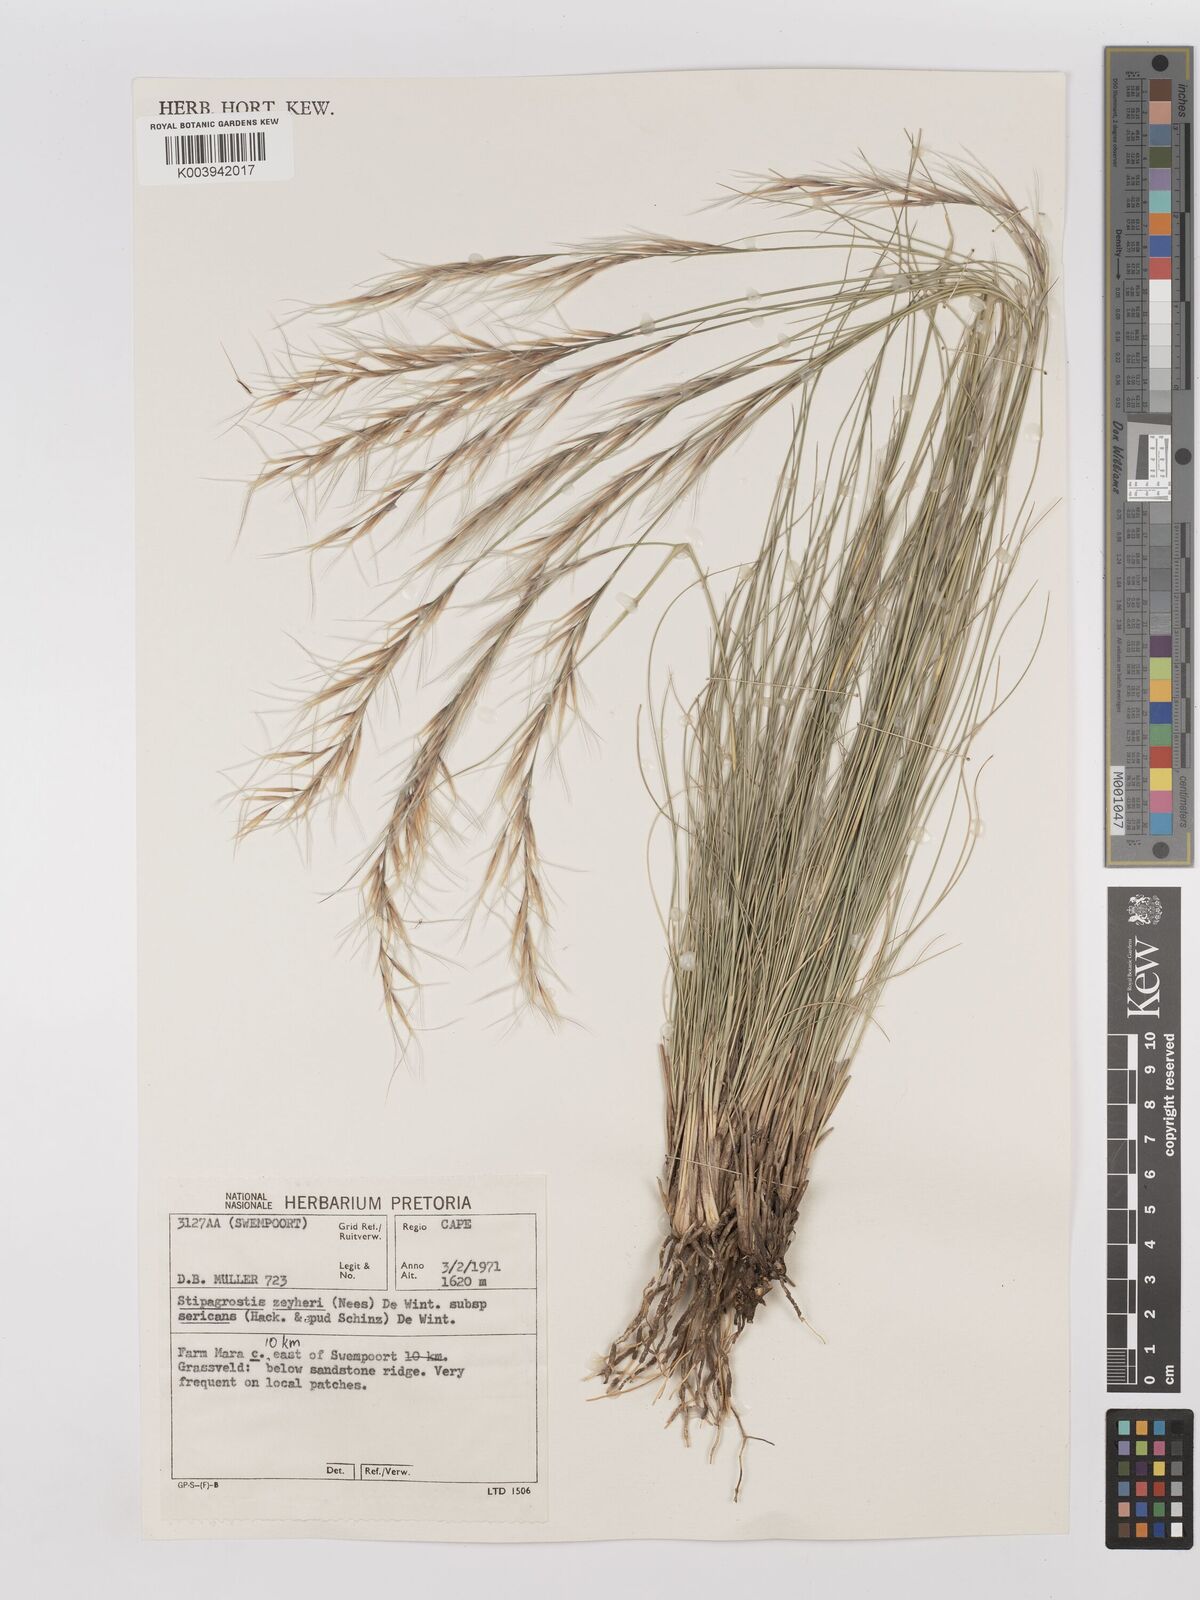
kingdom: Plantae
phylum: Tracheophyta
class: Liliopsida
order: Poales
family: Poaceae
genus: Stipagrostis
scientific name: Stipagrostis zeyheri
